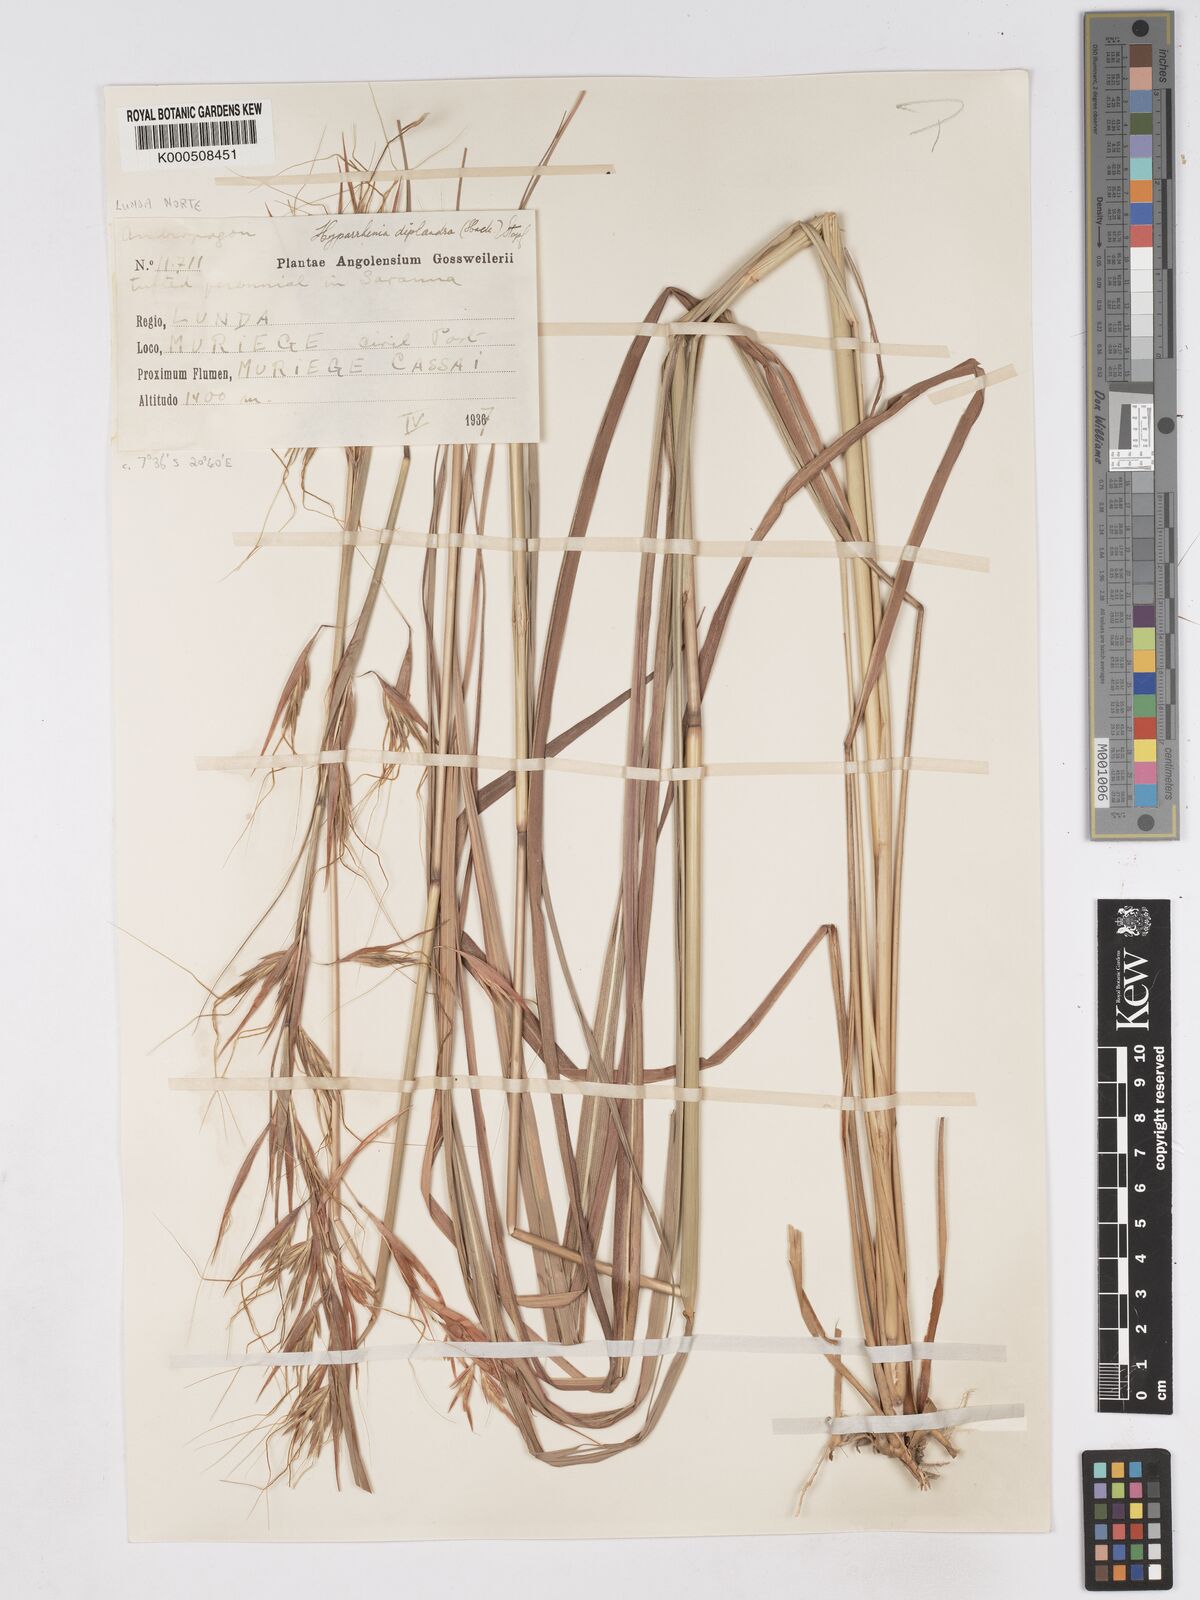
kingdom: Plantae
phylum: Tracheophyta
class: Liliopsida
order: Poales
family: Poaceae
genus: Hyparrhenia
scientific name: Hyparrhenia diplandra
